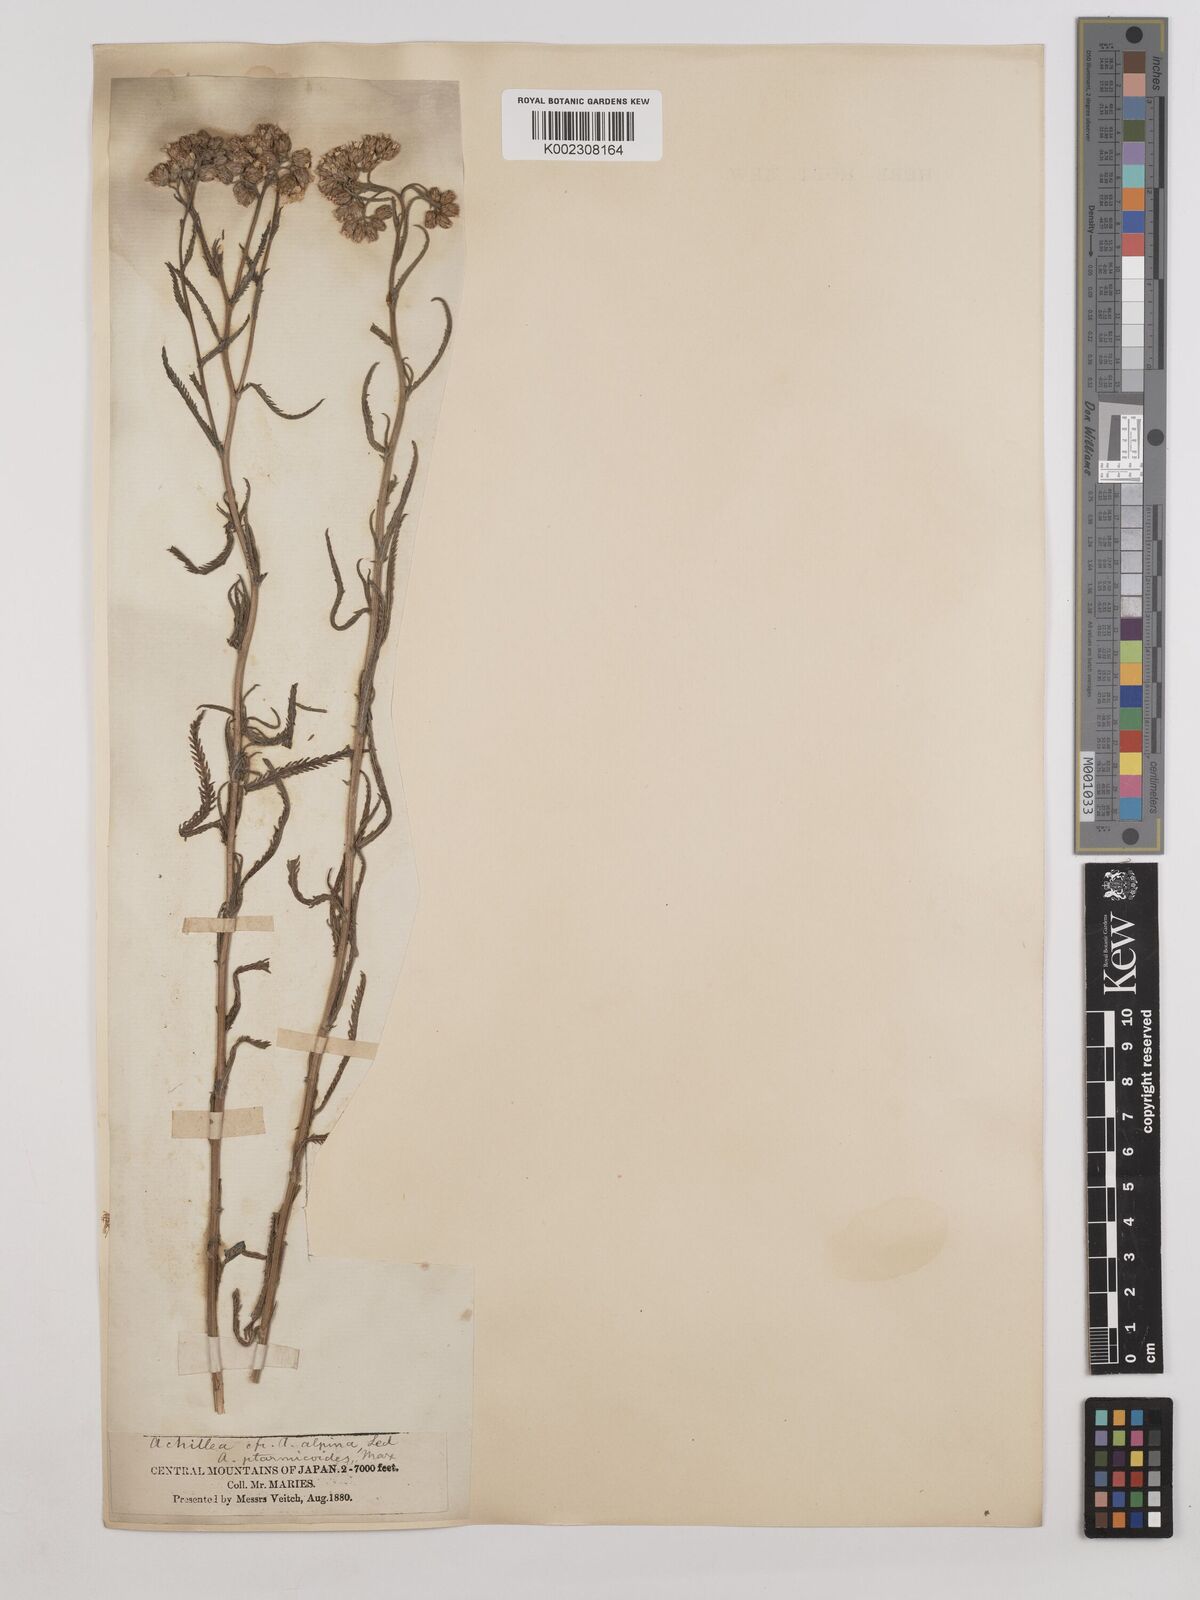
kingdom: Plantae
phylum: Tracheophyta
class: Magnoliopsida
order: Asterales
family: Asteraceae
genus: Achillea
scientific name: Achillea ptarmicoides
